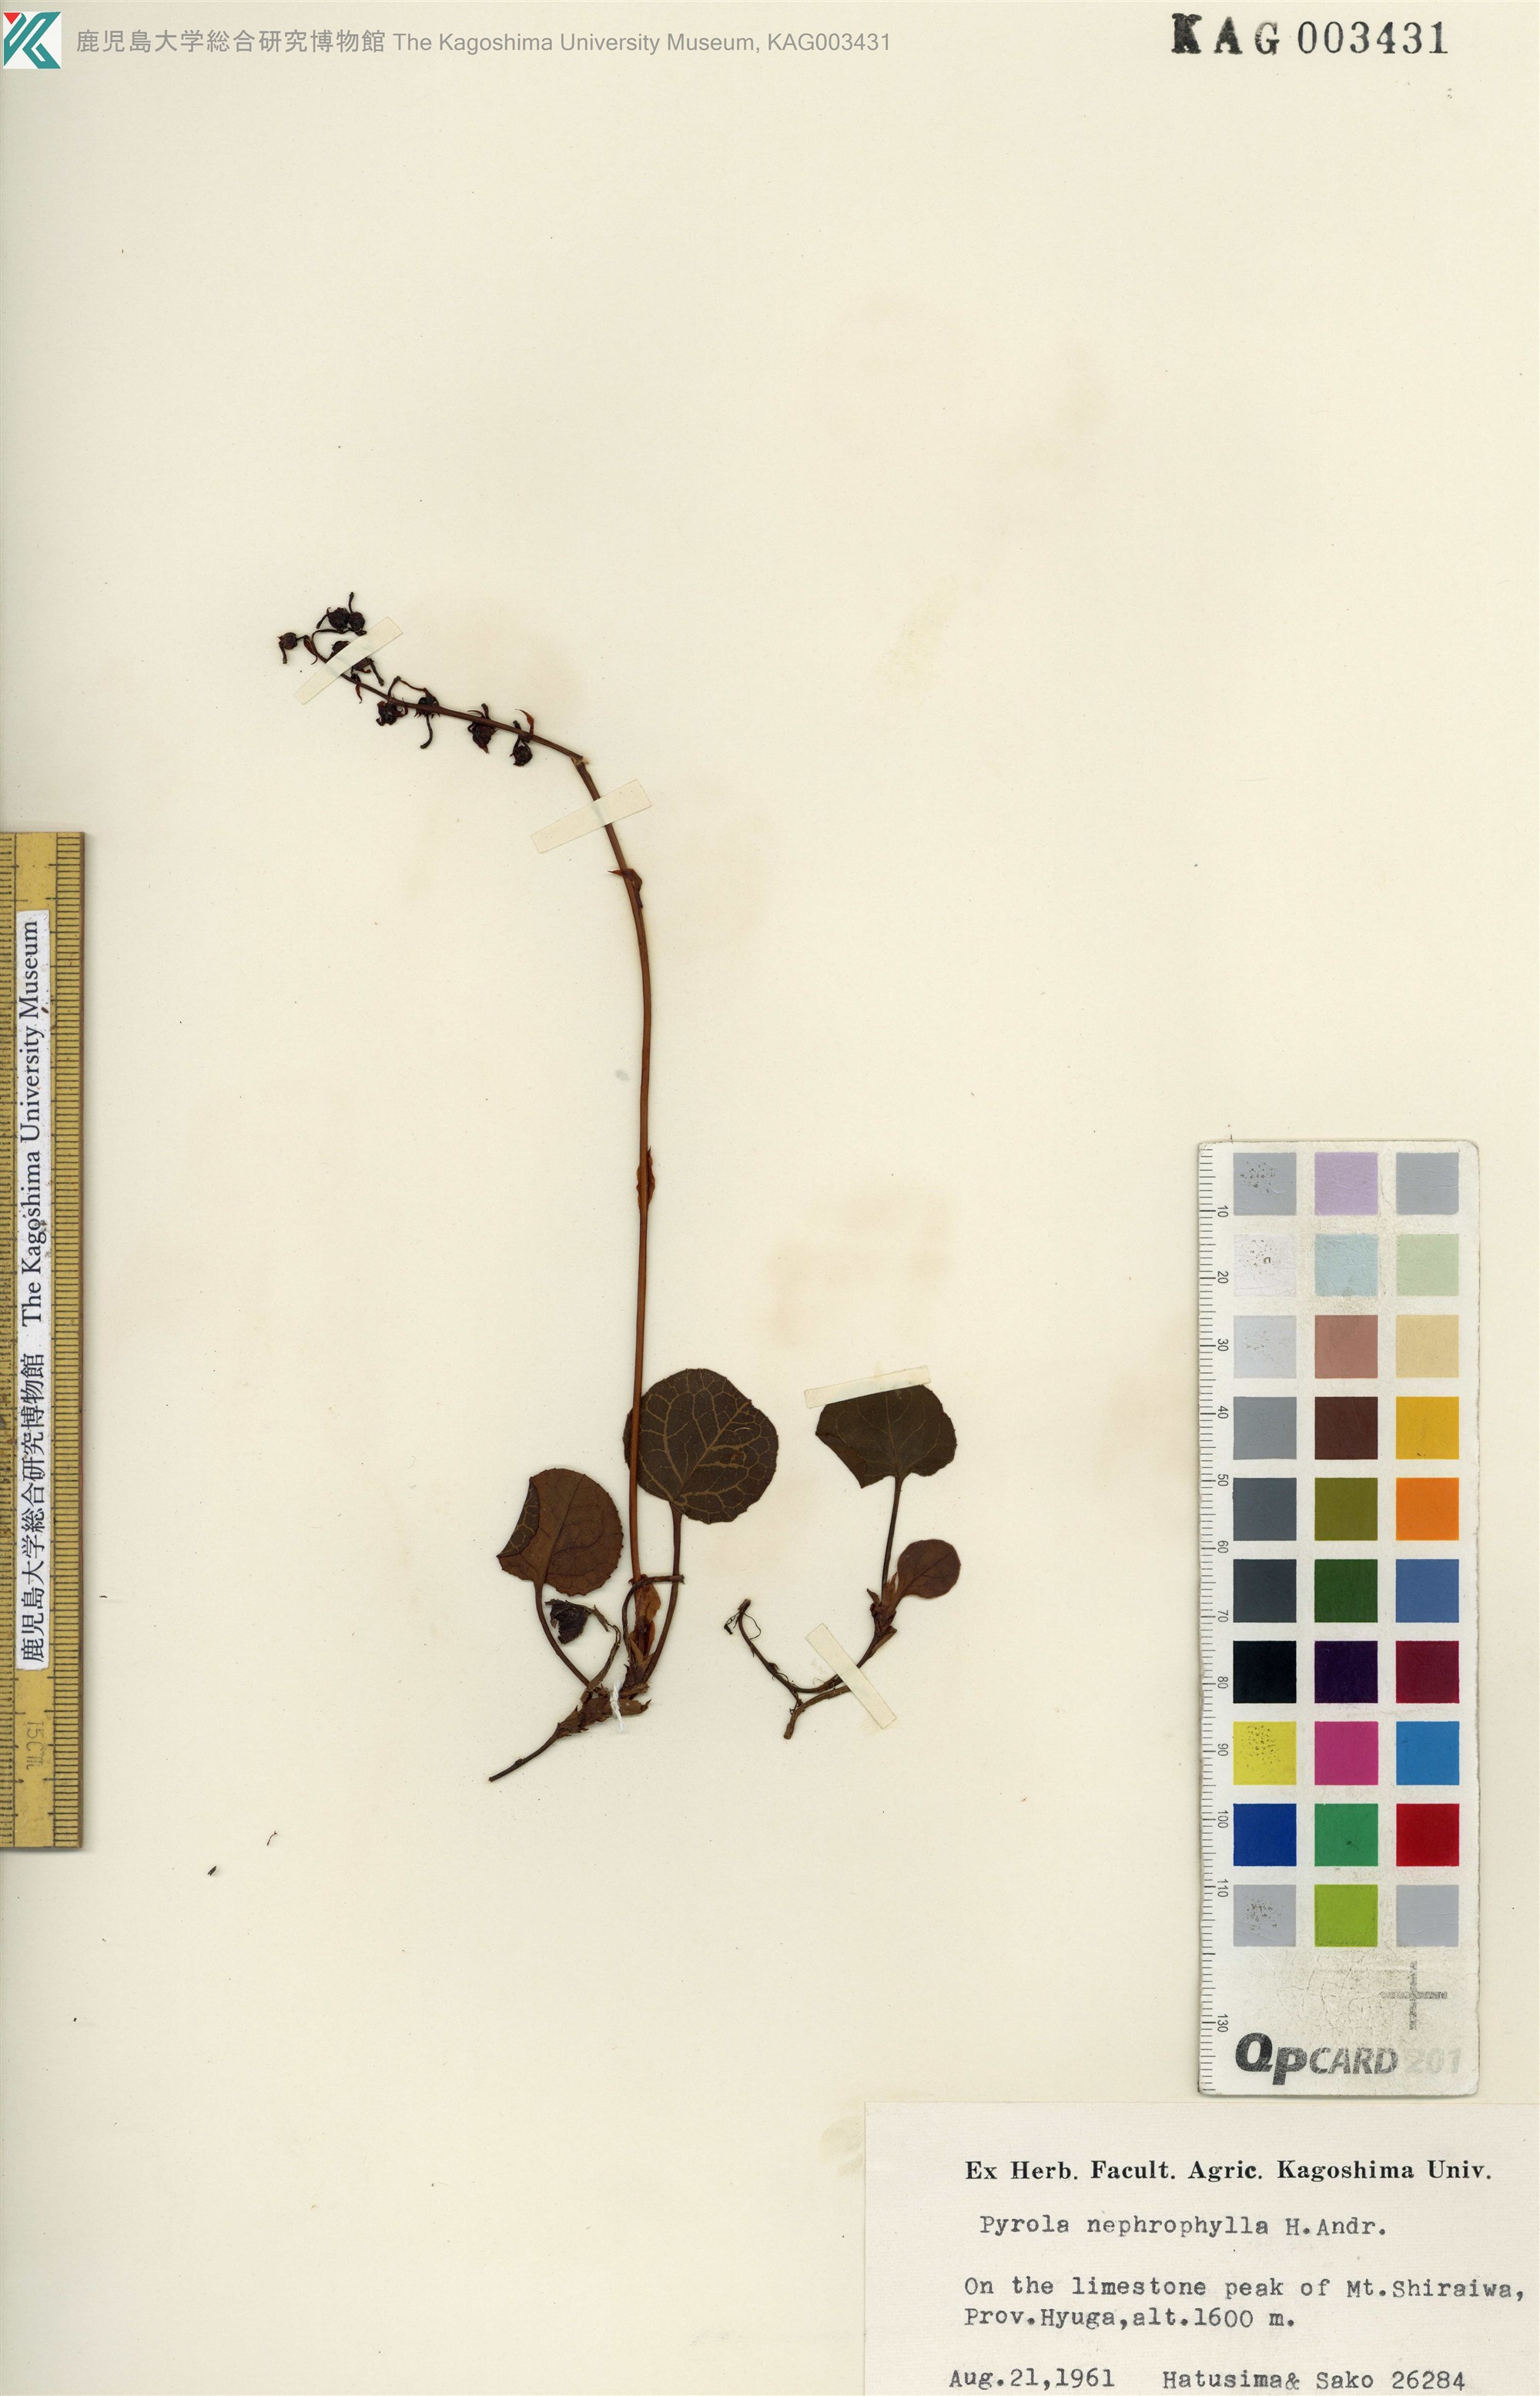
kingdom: Plantae
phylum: Tracheophyta
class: Magnoliopsida
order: Ericales
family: Ericaceae
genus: Pyrola
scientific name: Pyrola nephrophylla
